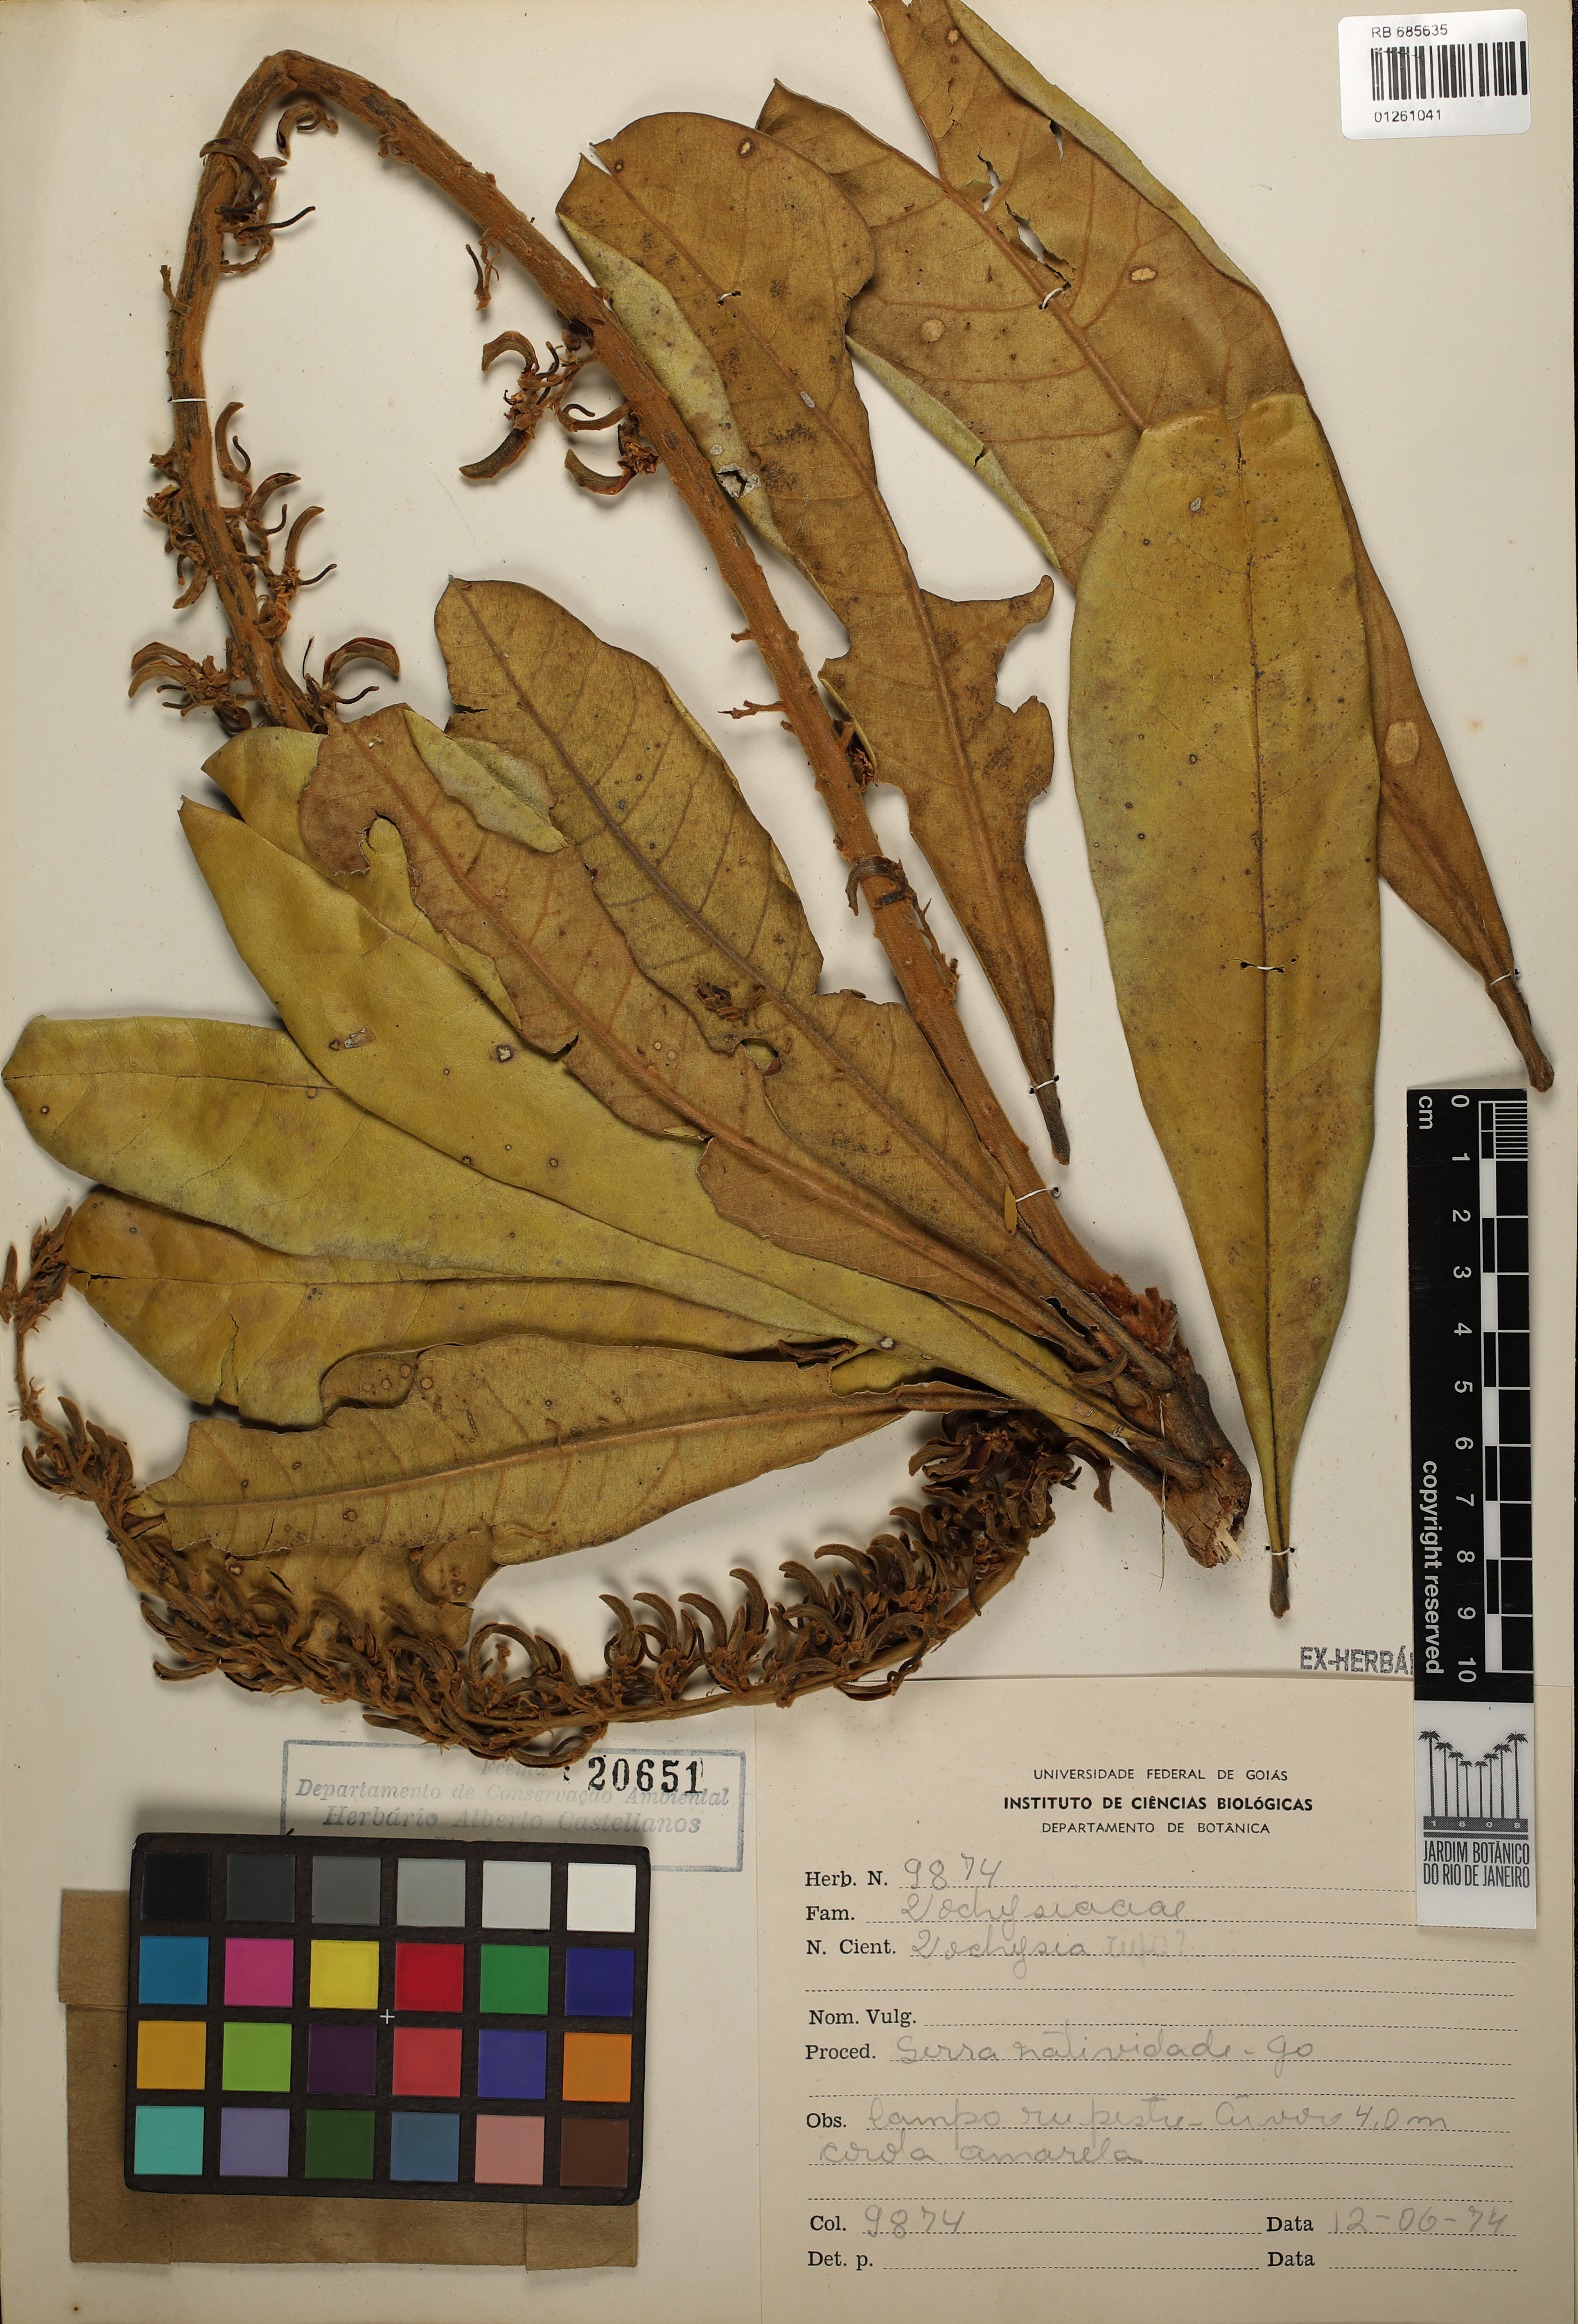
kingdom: Plantae
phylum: Tracheophyta
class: Magnoliopsida
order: Myrtales
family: Vochysiaceae
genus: Vochysia
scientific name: Vochysia rufa
